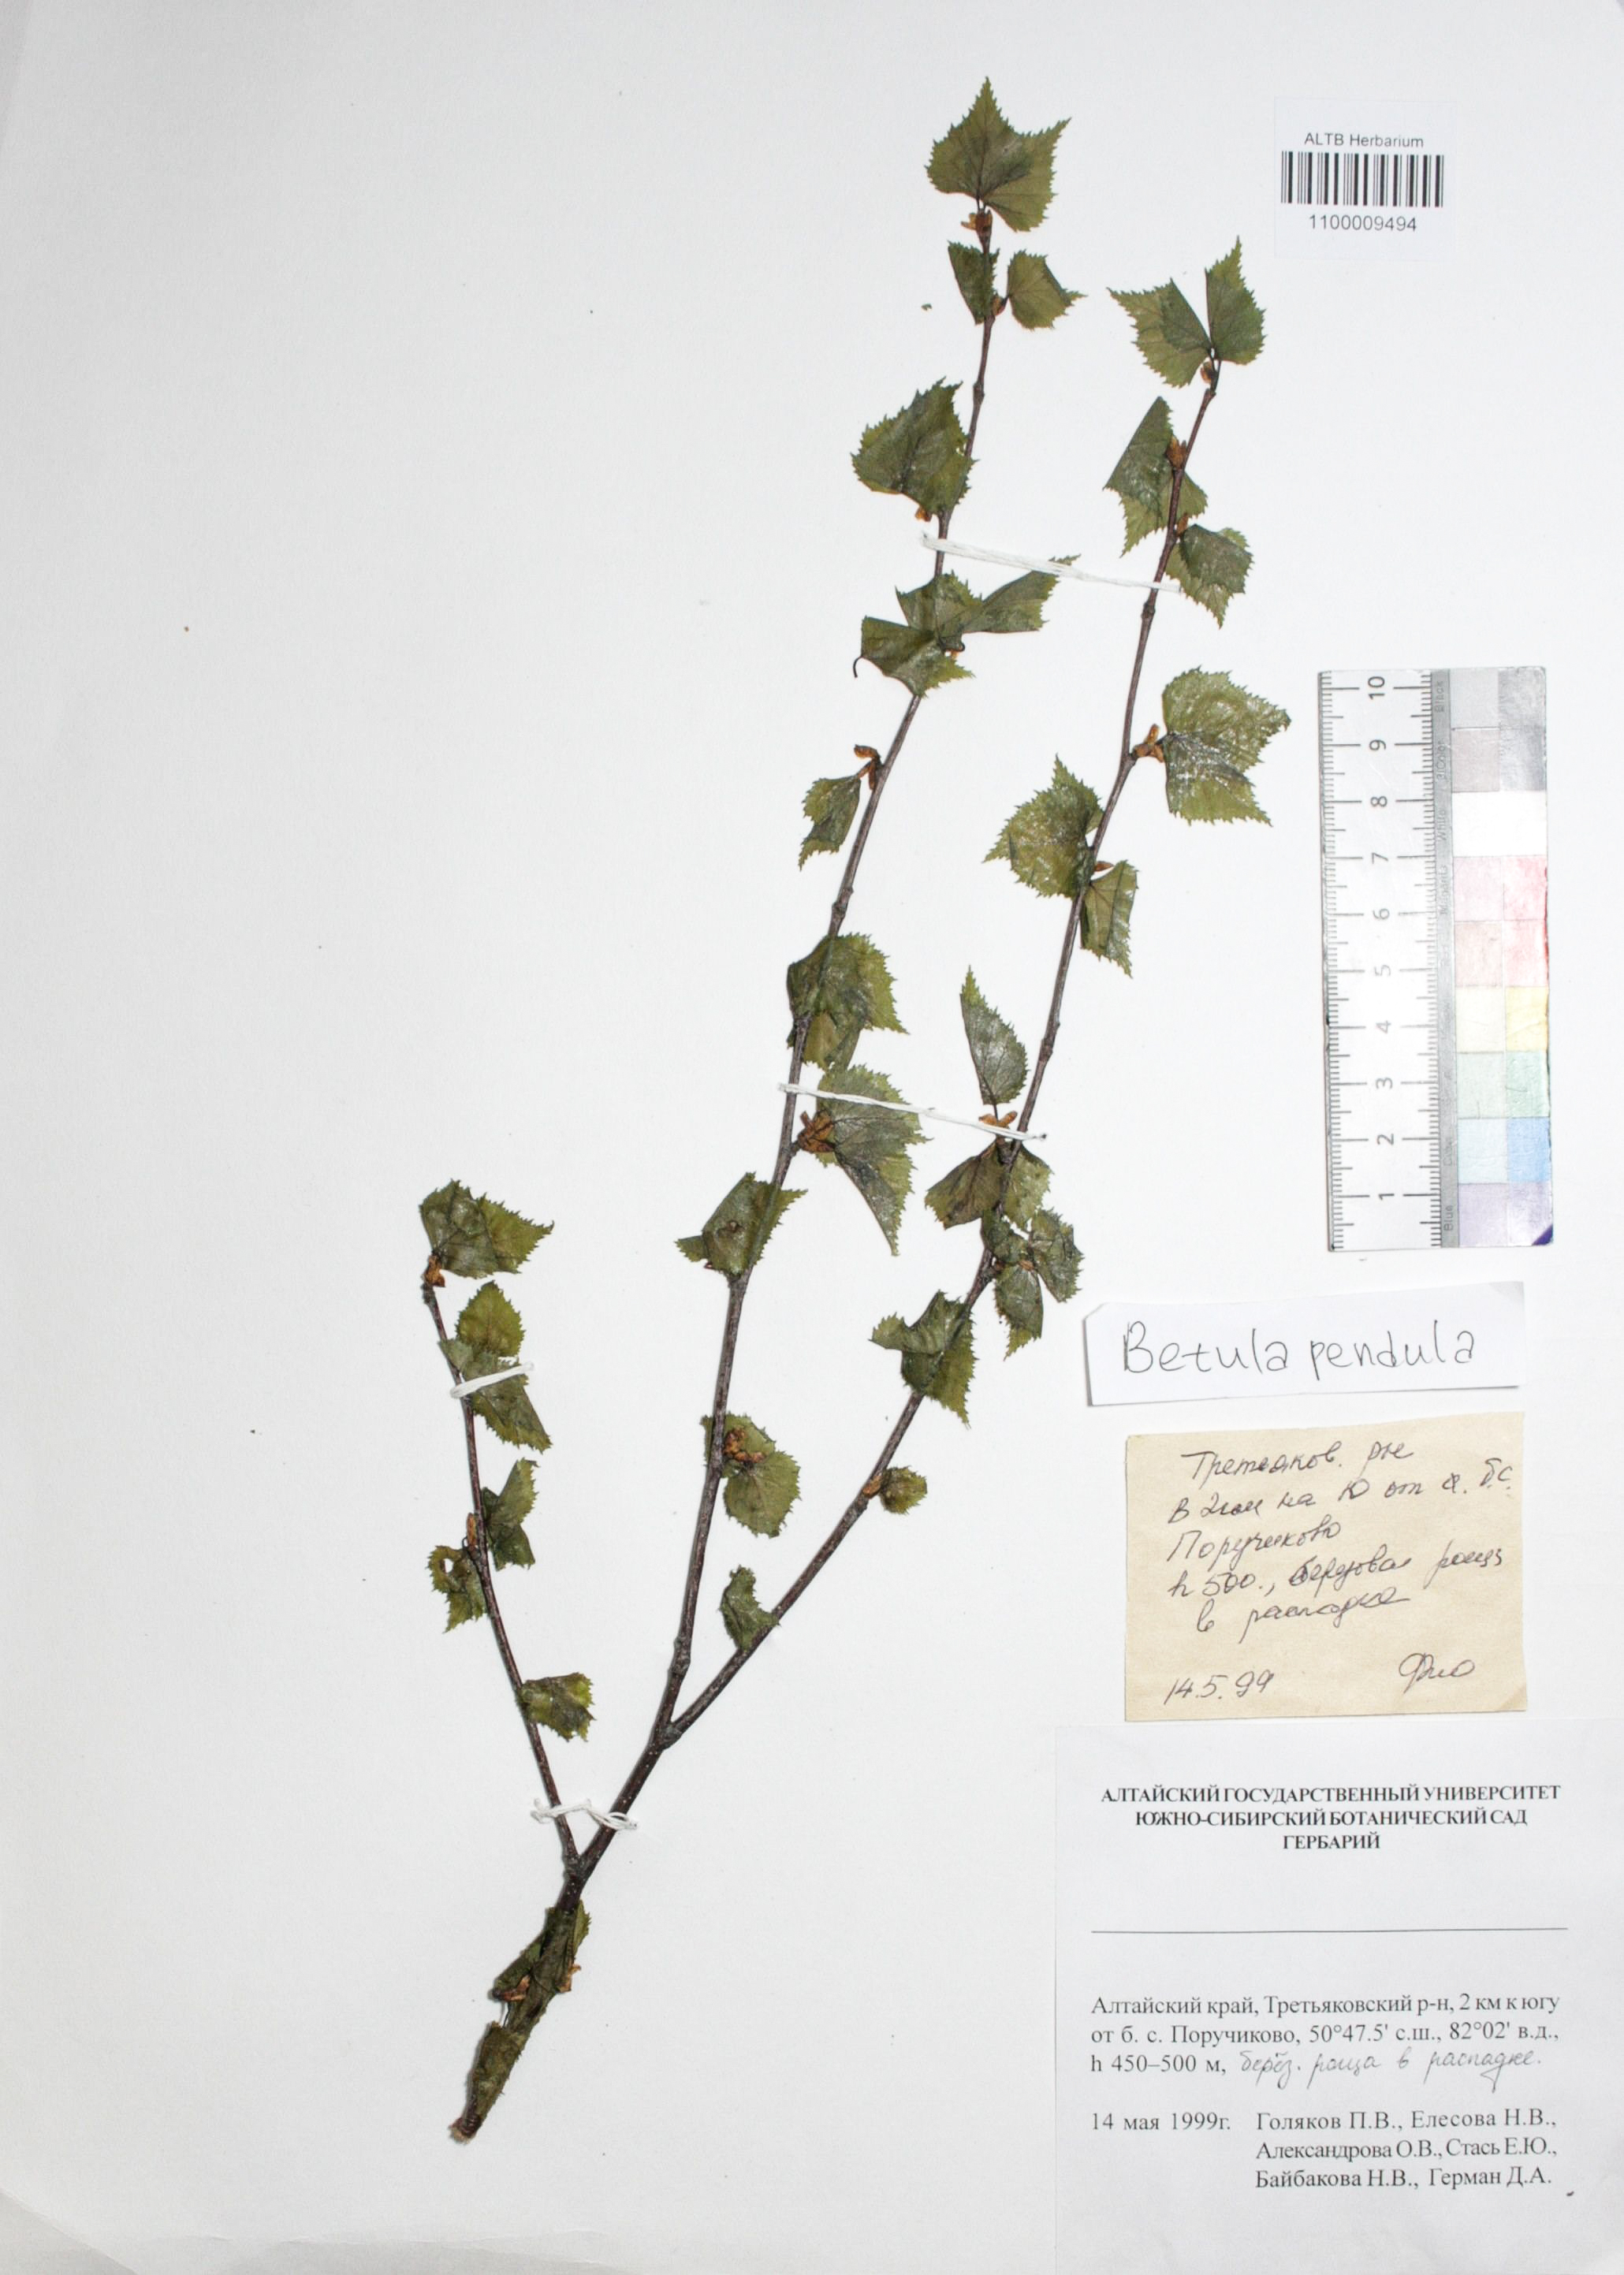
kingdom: Plantae
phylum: Tracheophyta
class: Magnoliopsida
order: Fagales
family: Betulaceae
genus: Betula
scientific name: Betula pendula
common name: Silver birch
